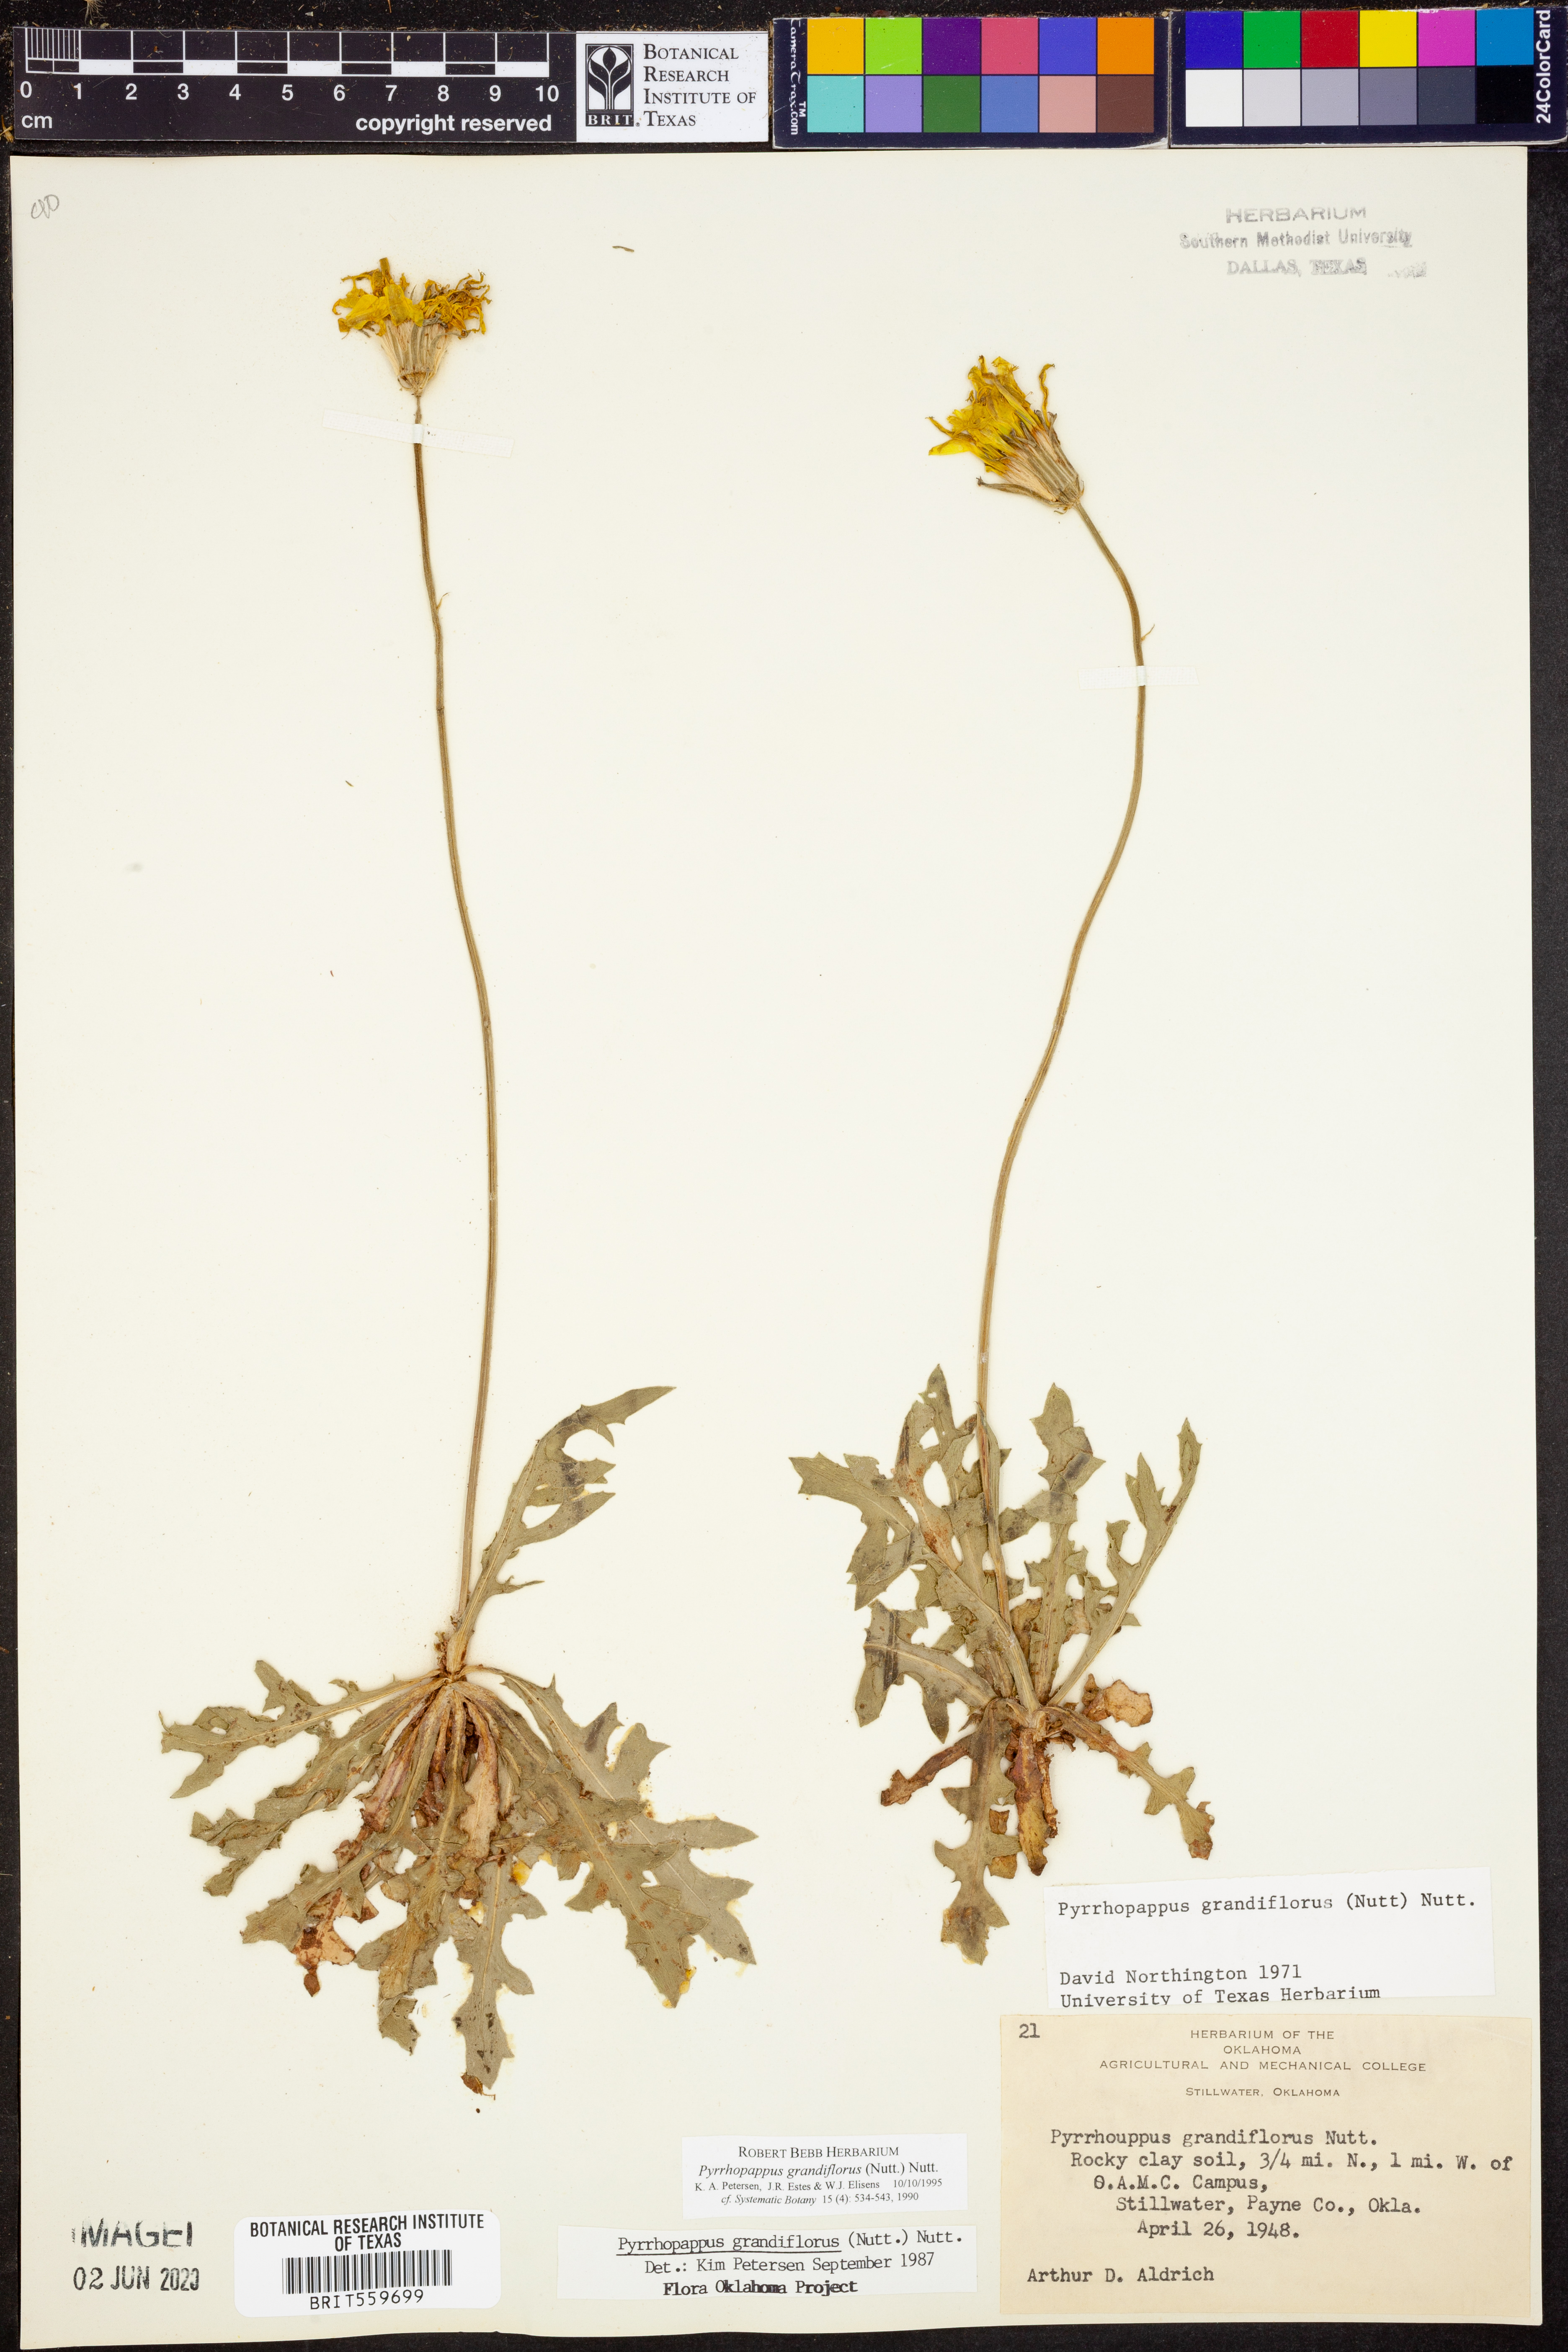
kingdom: Plantae
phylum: Tracheophyta
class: Magnoliopsida
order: Asterales
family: Asteraceae
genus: Pyrrhopappus
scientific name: Pyrrhopappus grandiflorus
